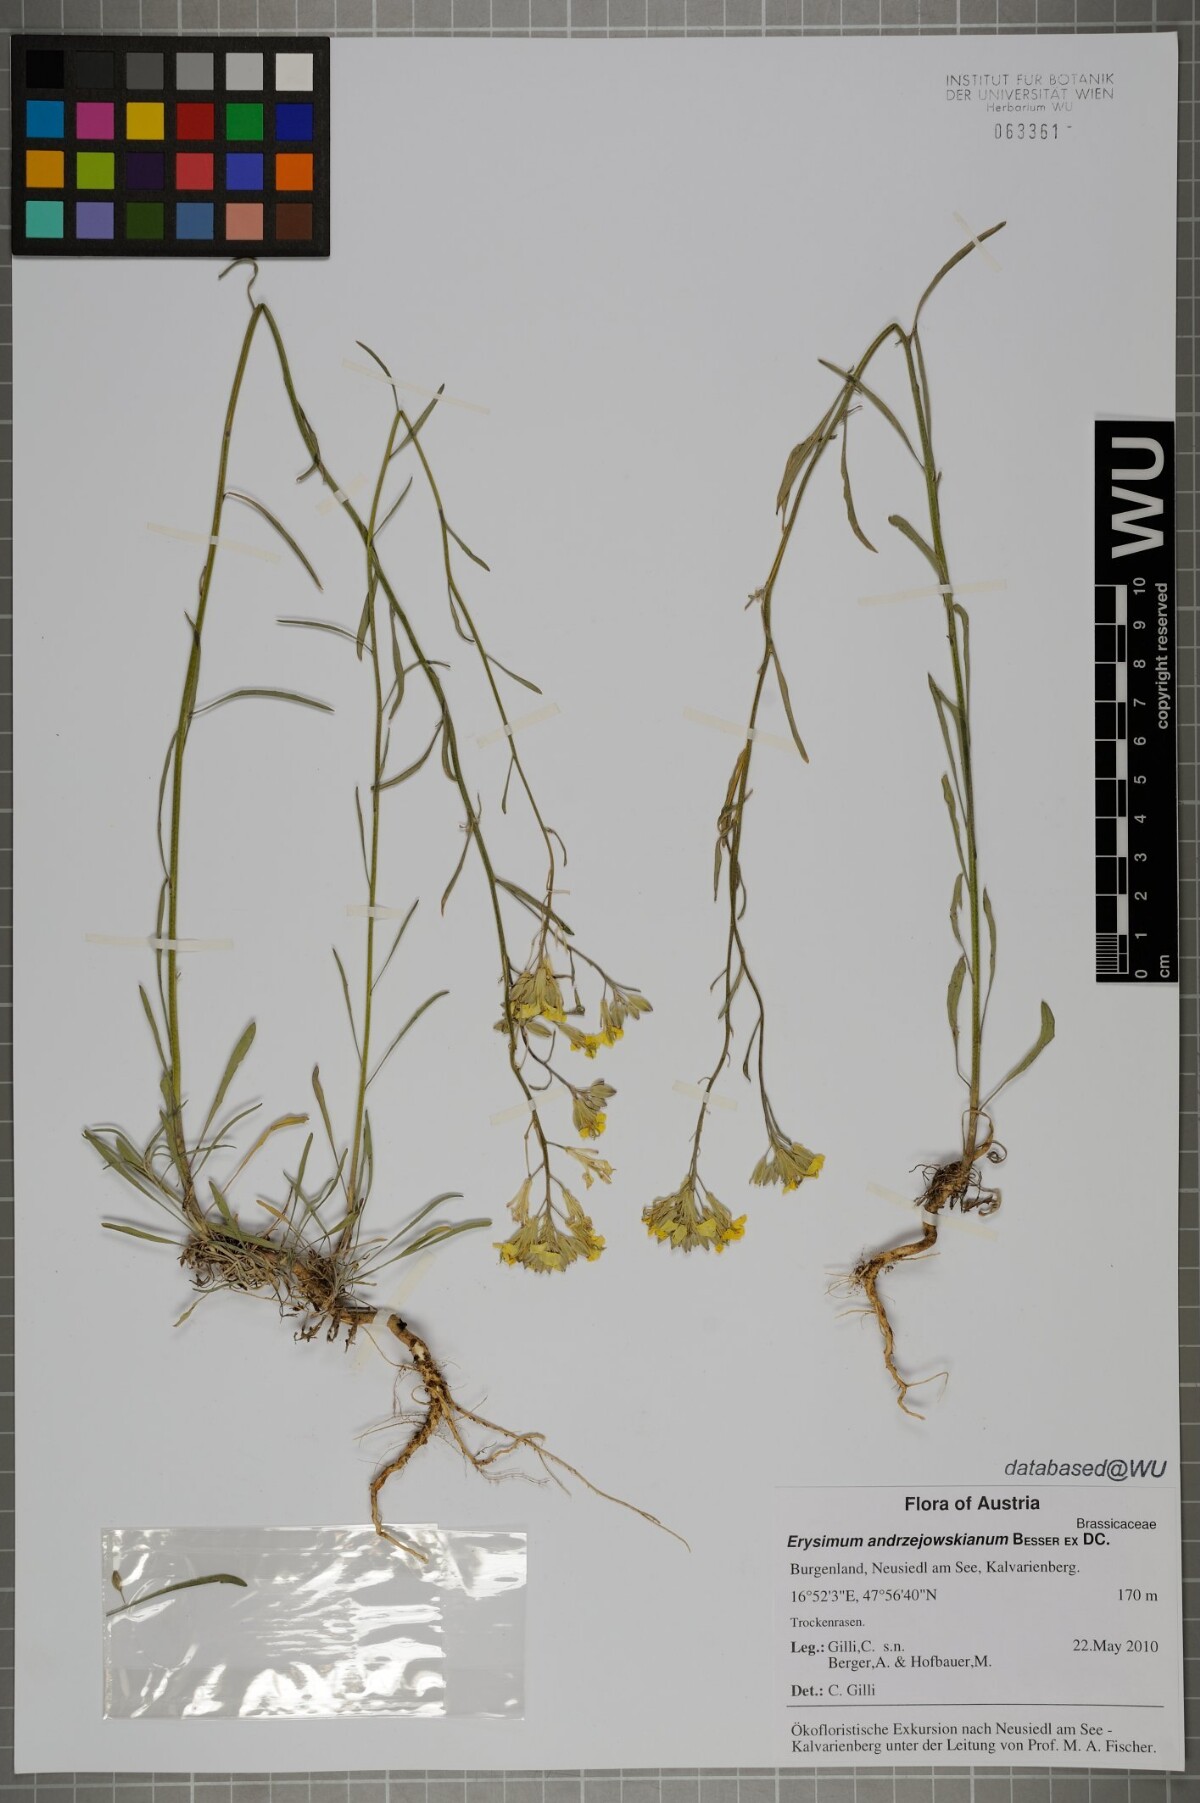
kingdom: Plantae
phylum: Tracheophyta
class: Magnoliopsida
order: Brassicales
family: Brassicaceae
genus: Erysimum
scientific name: Erysimum andrzejowskianum
